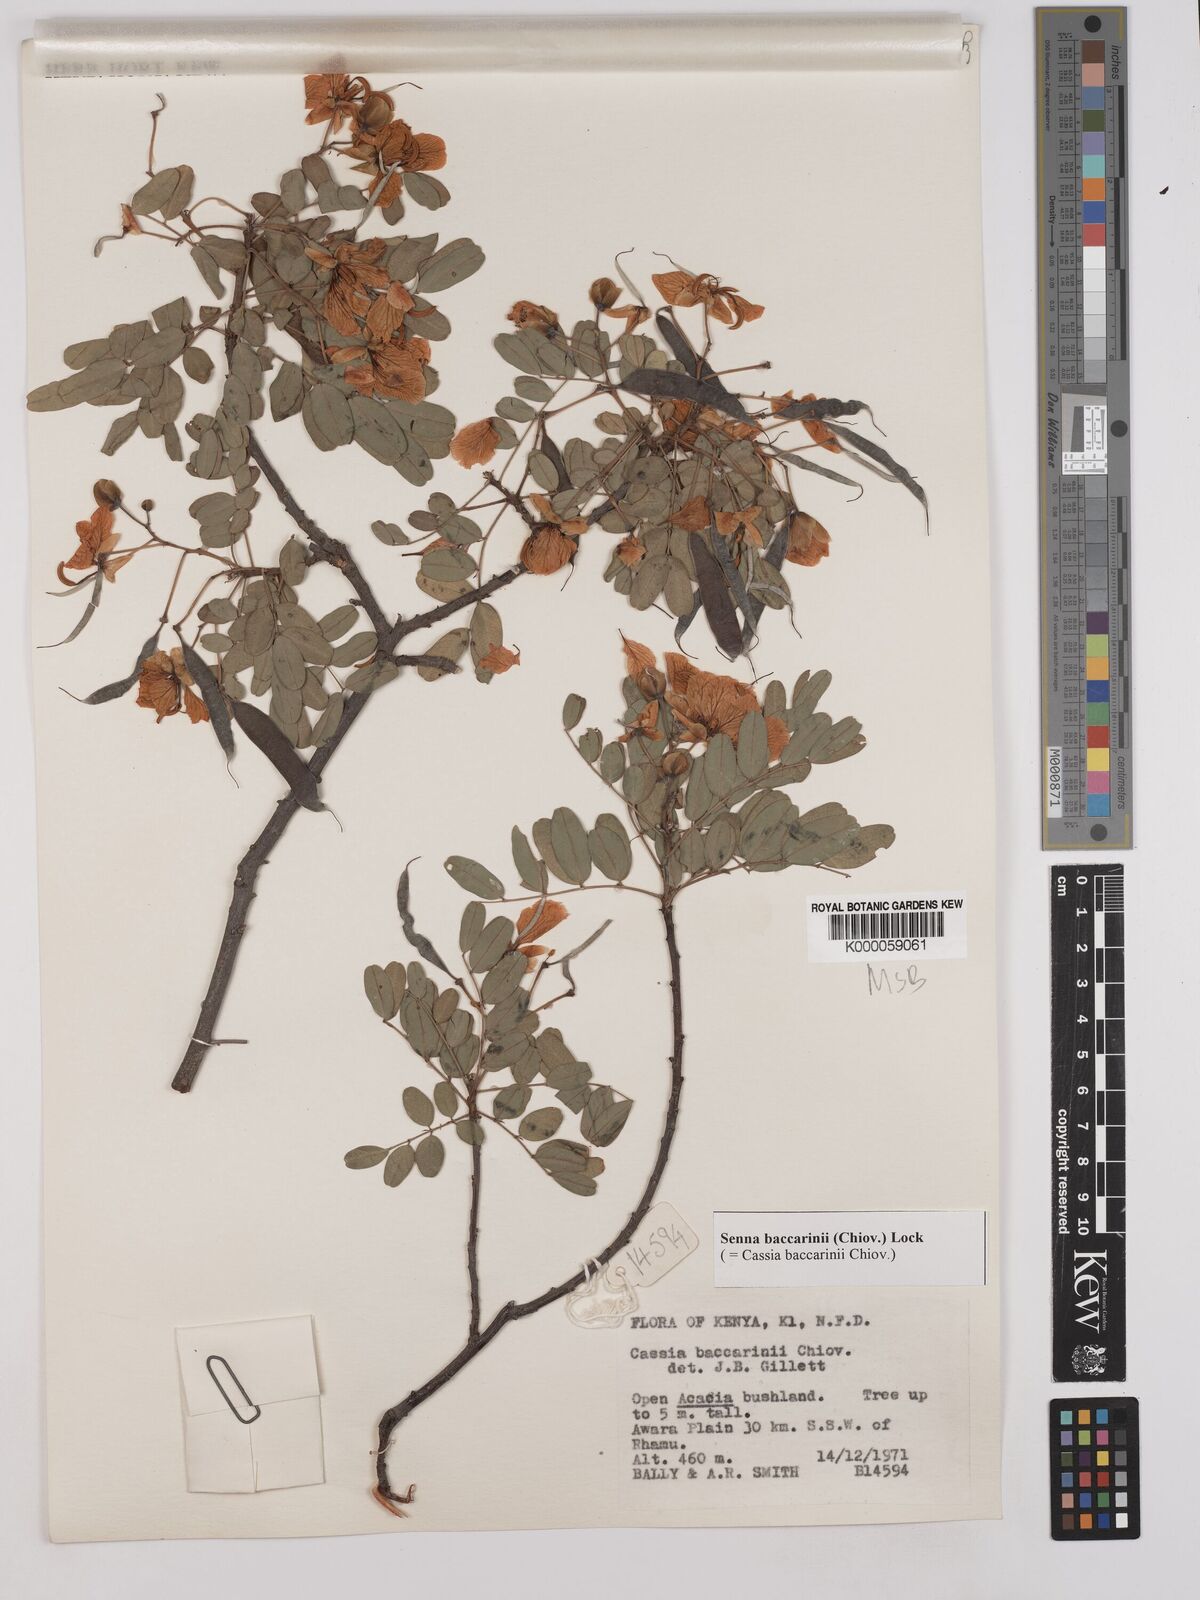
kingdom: Plantae
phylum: Tracheophyta
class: Magnoliopsida
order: Fabales
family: Fabaceae
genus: Senna
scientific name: Senna baccarinii
